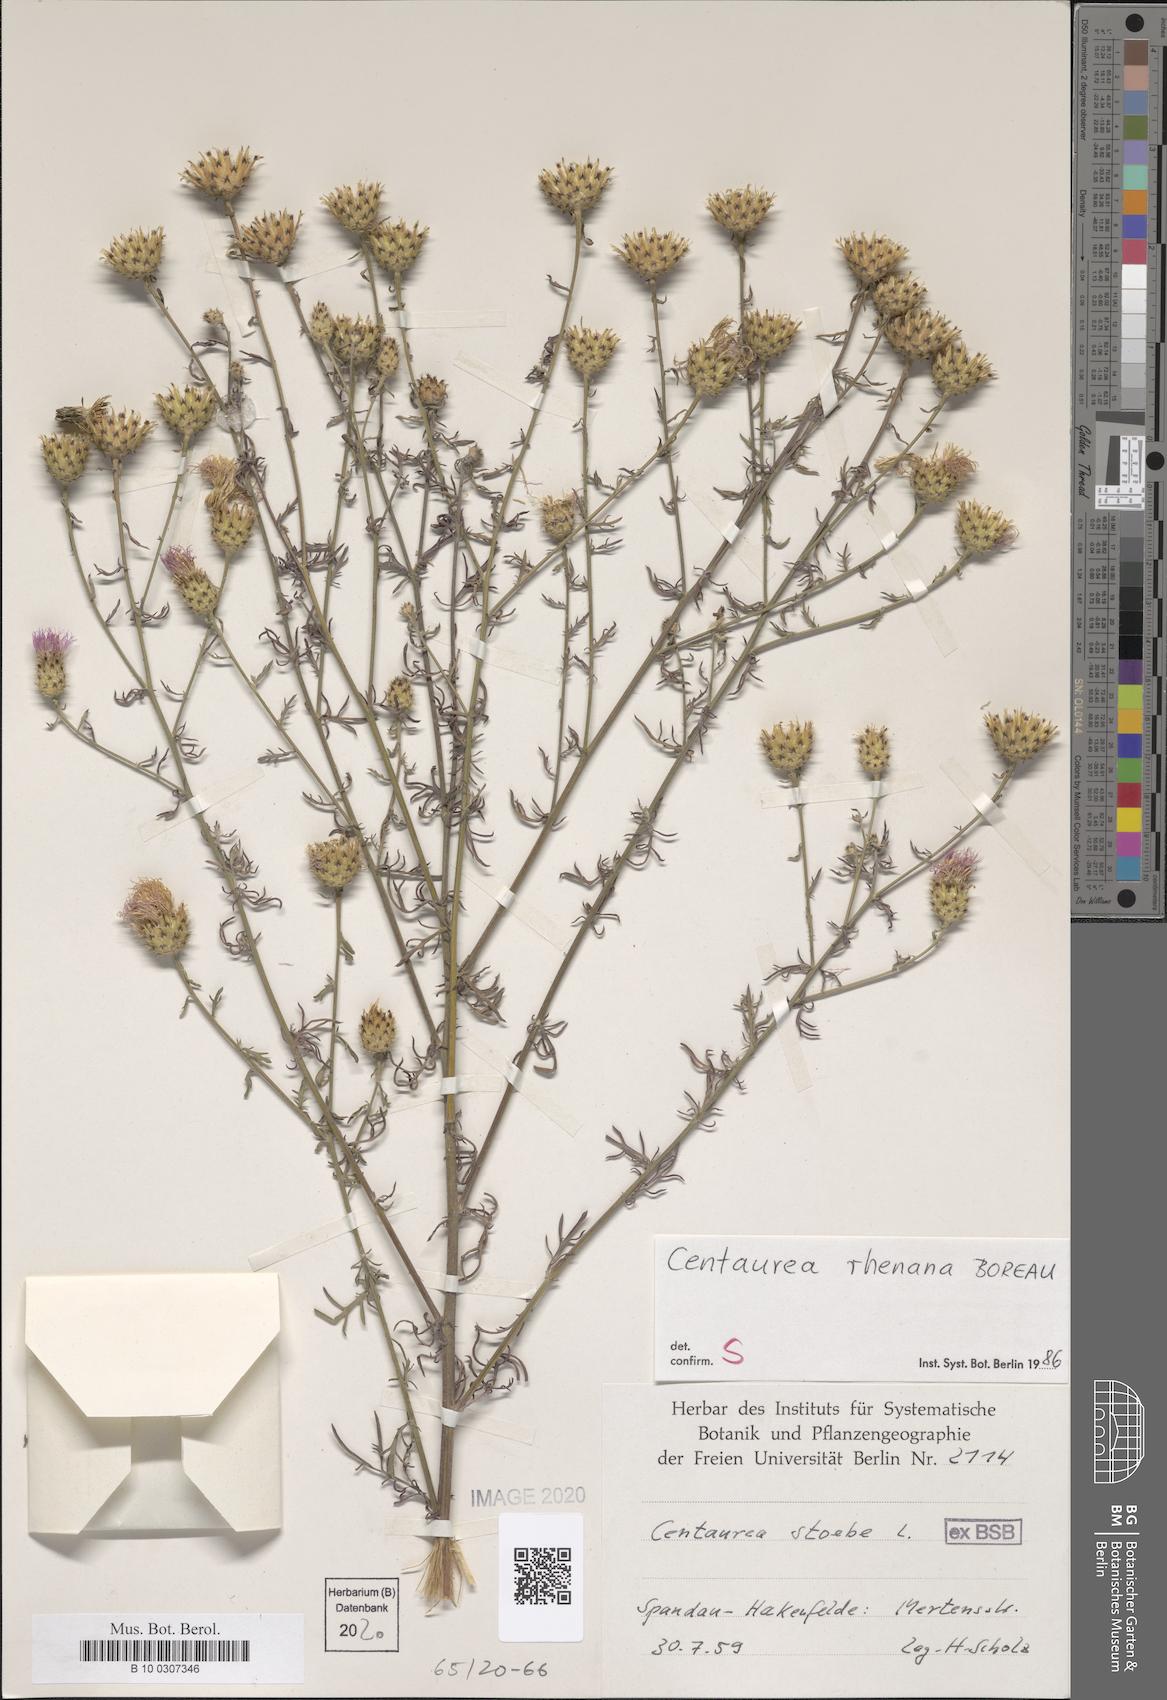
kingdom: Plantae
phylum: Tracheophyta
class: Magnoliopsida
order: Asterales
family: Asteraceae
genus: Centaurea
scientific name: Centaurea stoebe
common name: Spotted knapweed
